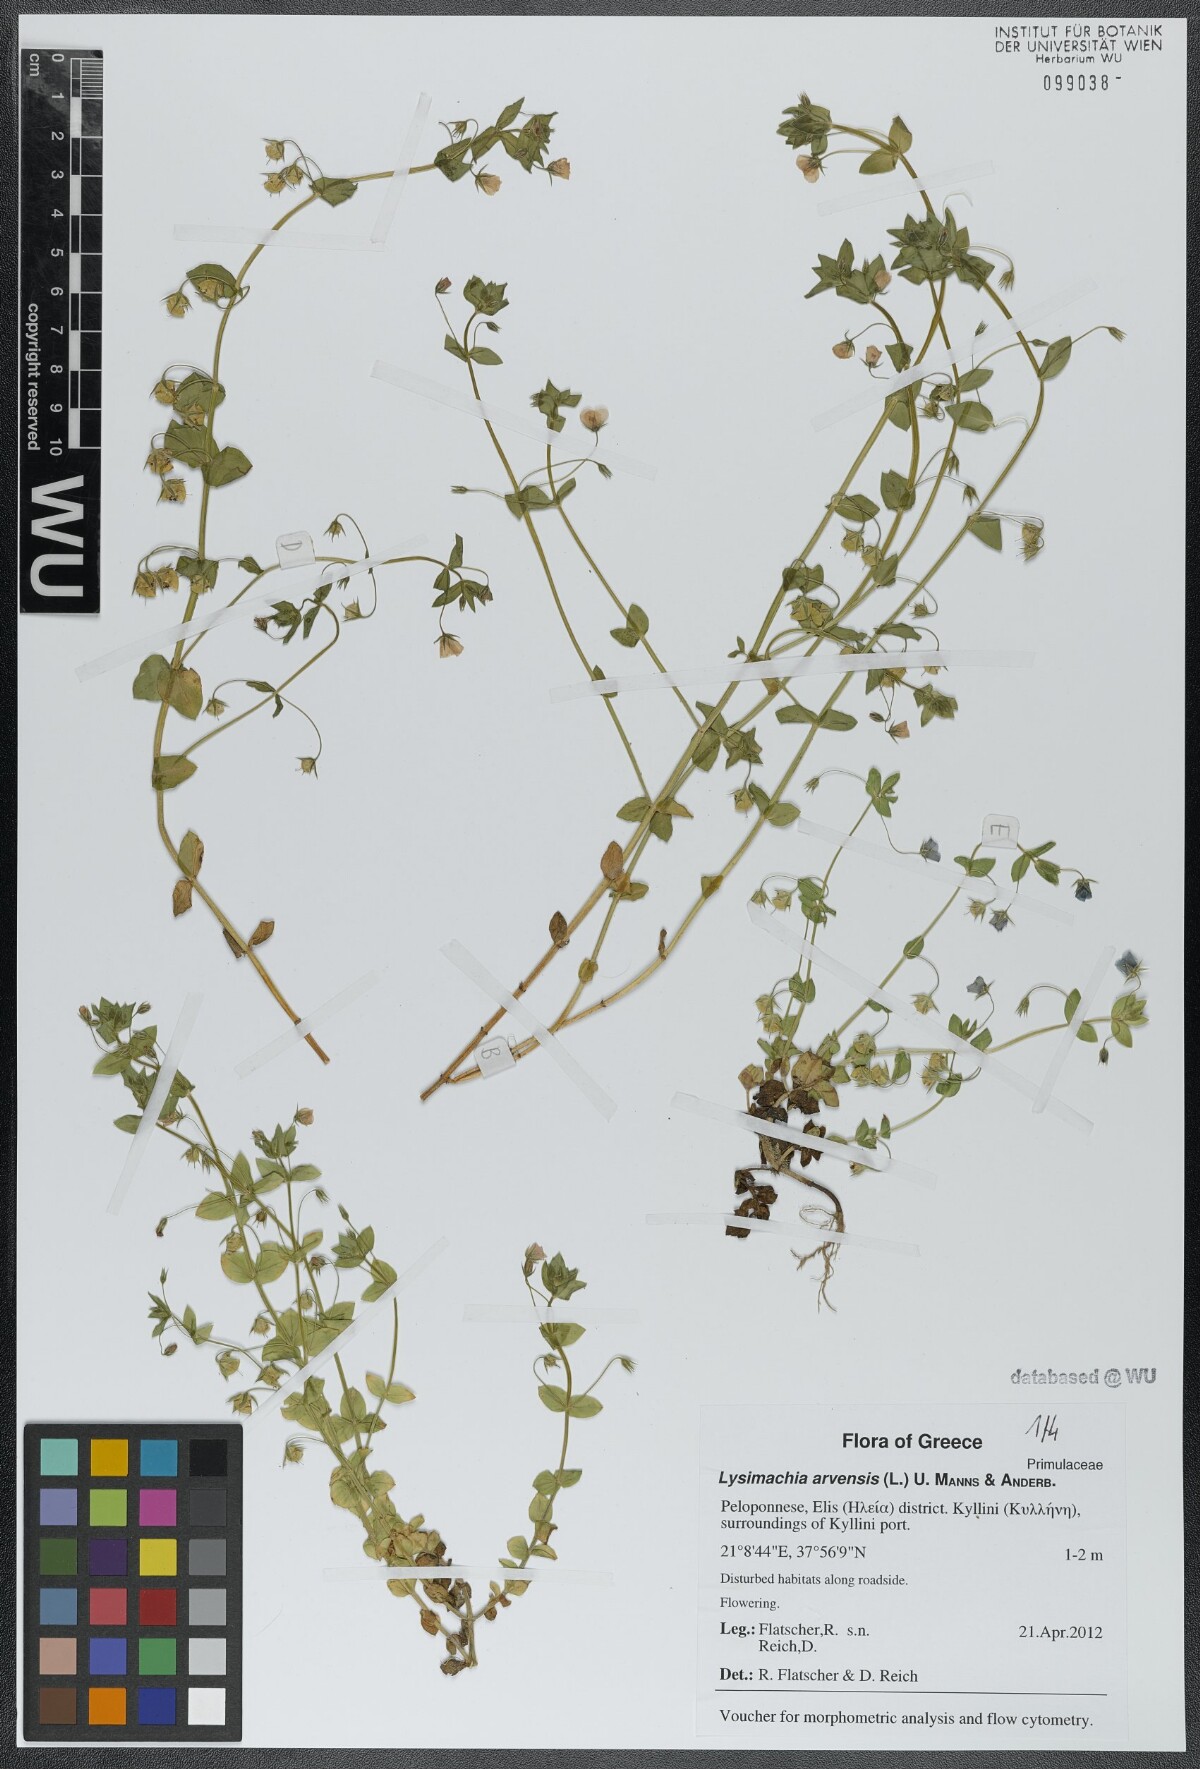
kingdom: Plantae
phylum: Tracheophyta
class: Magnoliopsida
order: Ericales
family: Primulaceae
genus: Lysimachia
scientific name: Lysimachia arvensis
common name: Scarlet pimpernel
